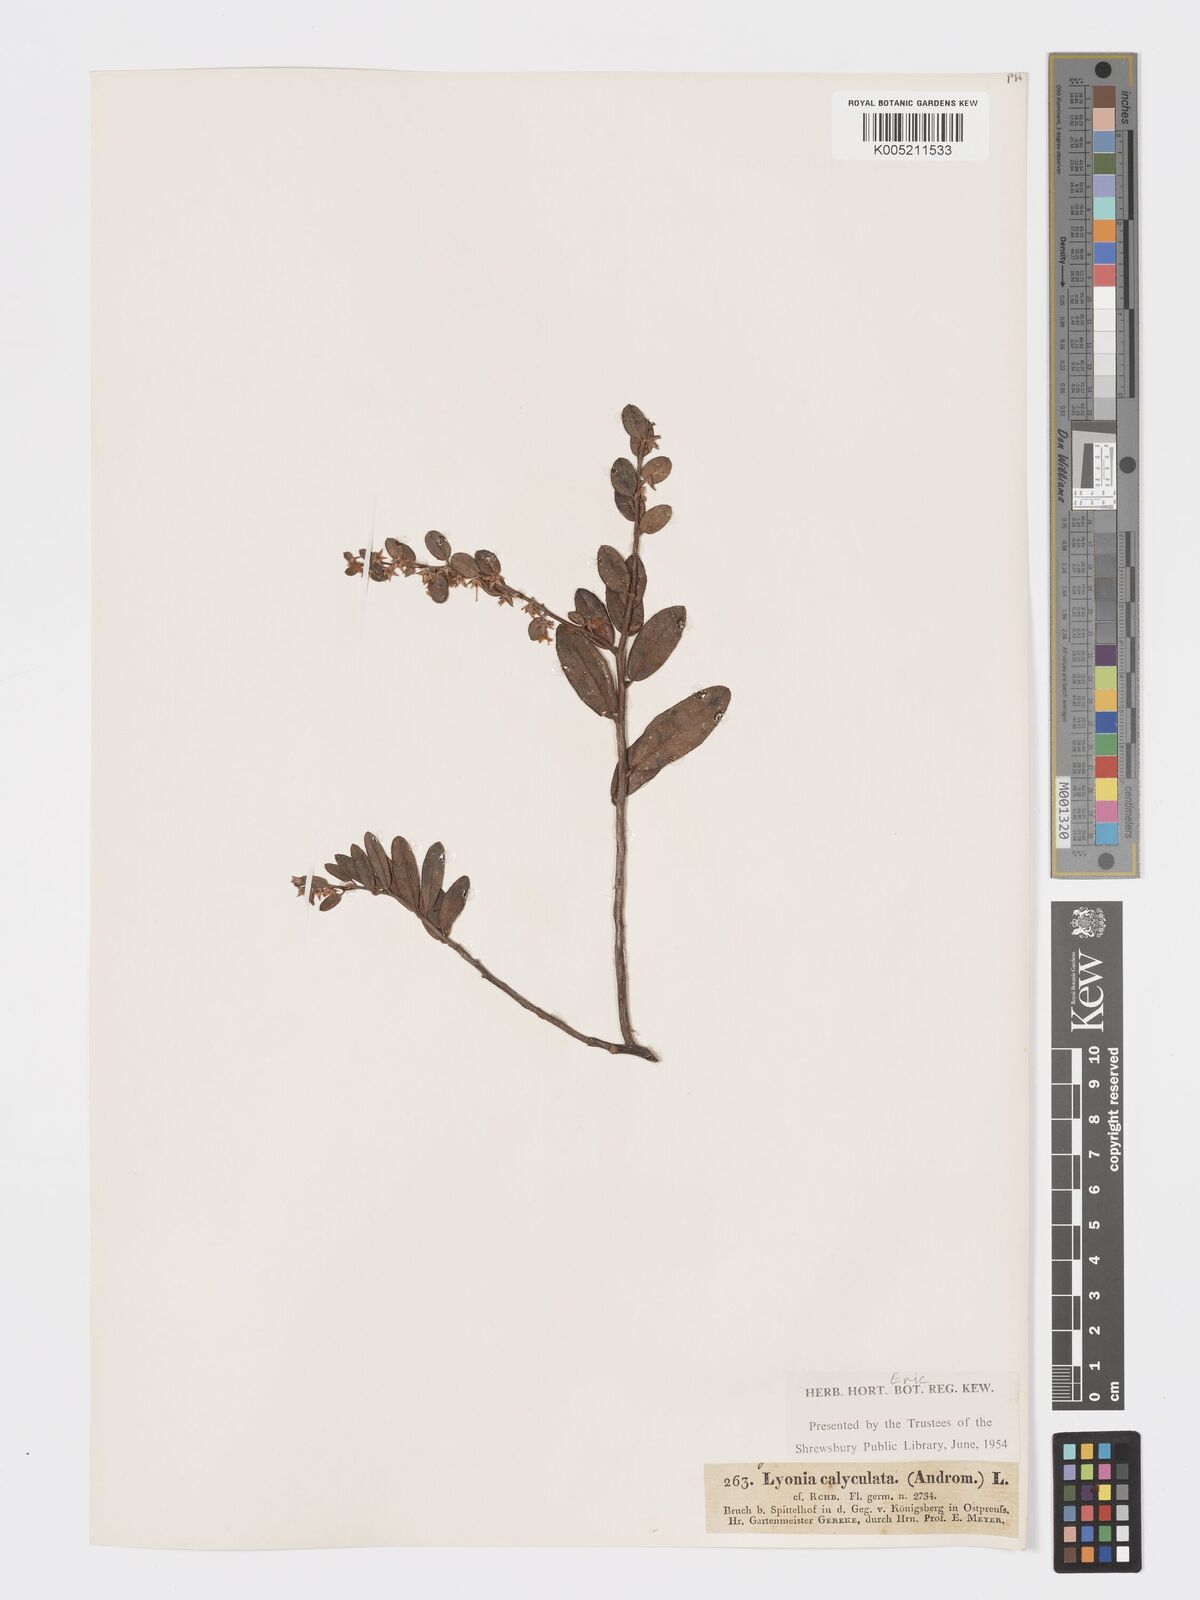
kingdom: Plantae
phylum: Tracheophyta
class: Magnoliopsida
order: Ericales
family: Ericaceae
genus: Chamaedaphne
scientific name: Chamaedaphne calyculata
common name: Leatherleaf
